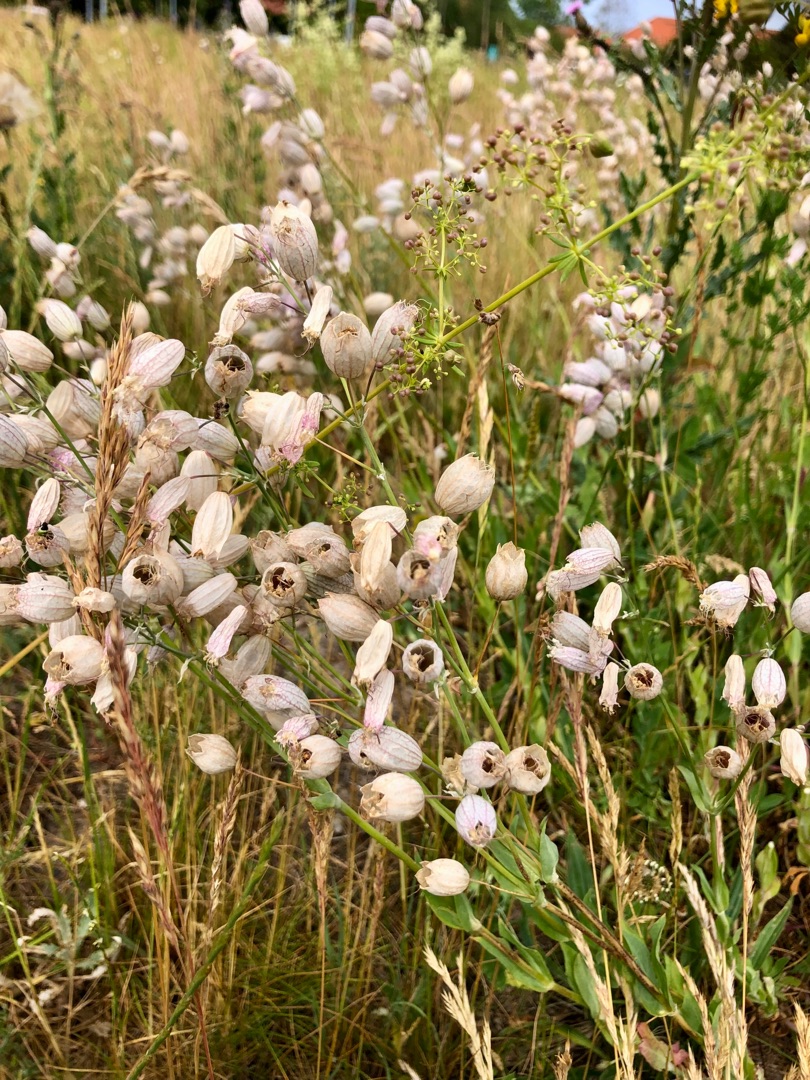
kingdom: Plantae
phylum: Tracheophyta
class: Magnoliopsida
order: Caryophyllales
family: Caryophyllaceae
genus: Silene
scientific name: Silene vulgaris
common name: Blæresmælde
